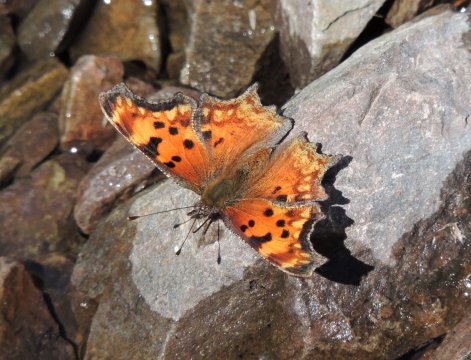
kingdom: Animalia
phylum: Arthropoda
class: Insecta
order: Lepidoptera
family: Nymphalidae
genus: Polygonia
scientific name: Polygonia gracilis
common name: Hoary Comma
